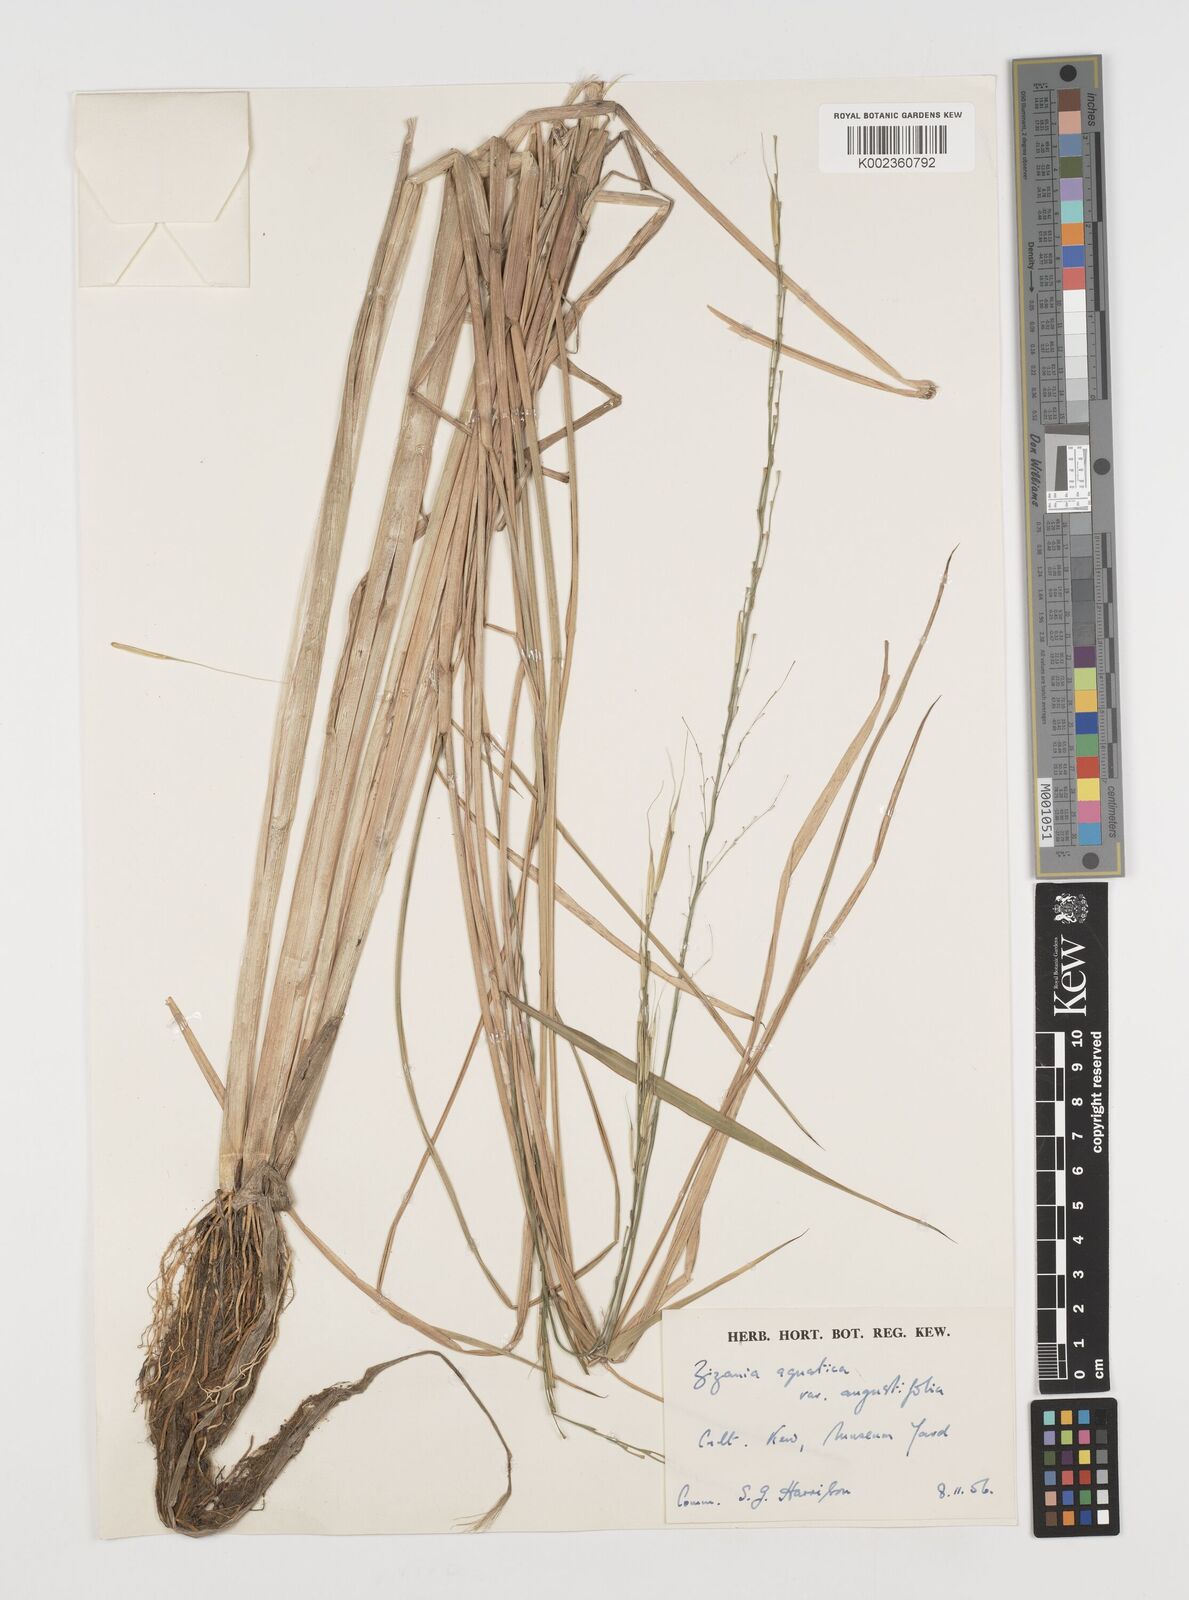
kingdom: Plantae
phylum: Tracheophyta
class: Liliopsida
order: Poales
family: Poaceae
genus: Zizania
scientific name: Zizania aquatica
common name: Annual wildrice
